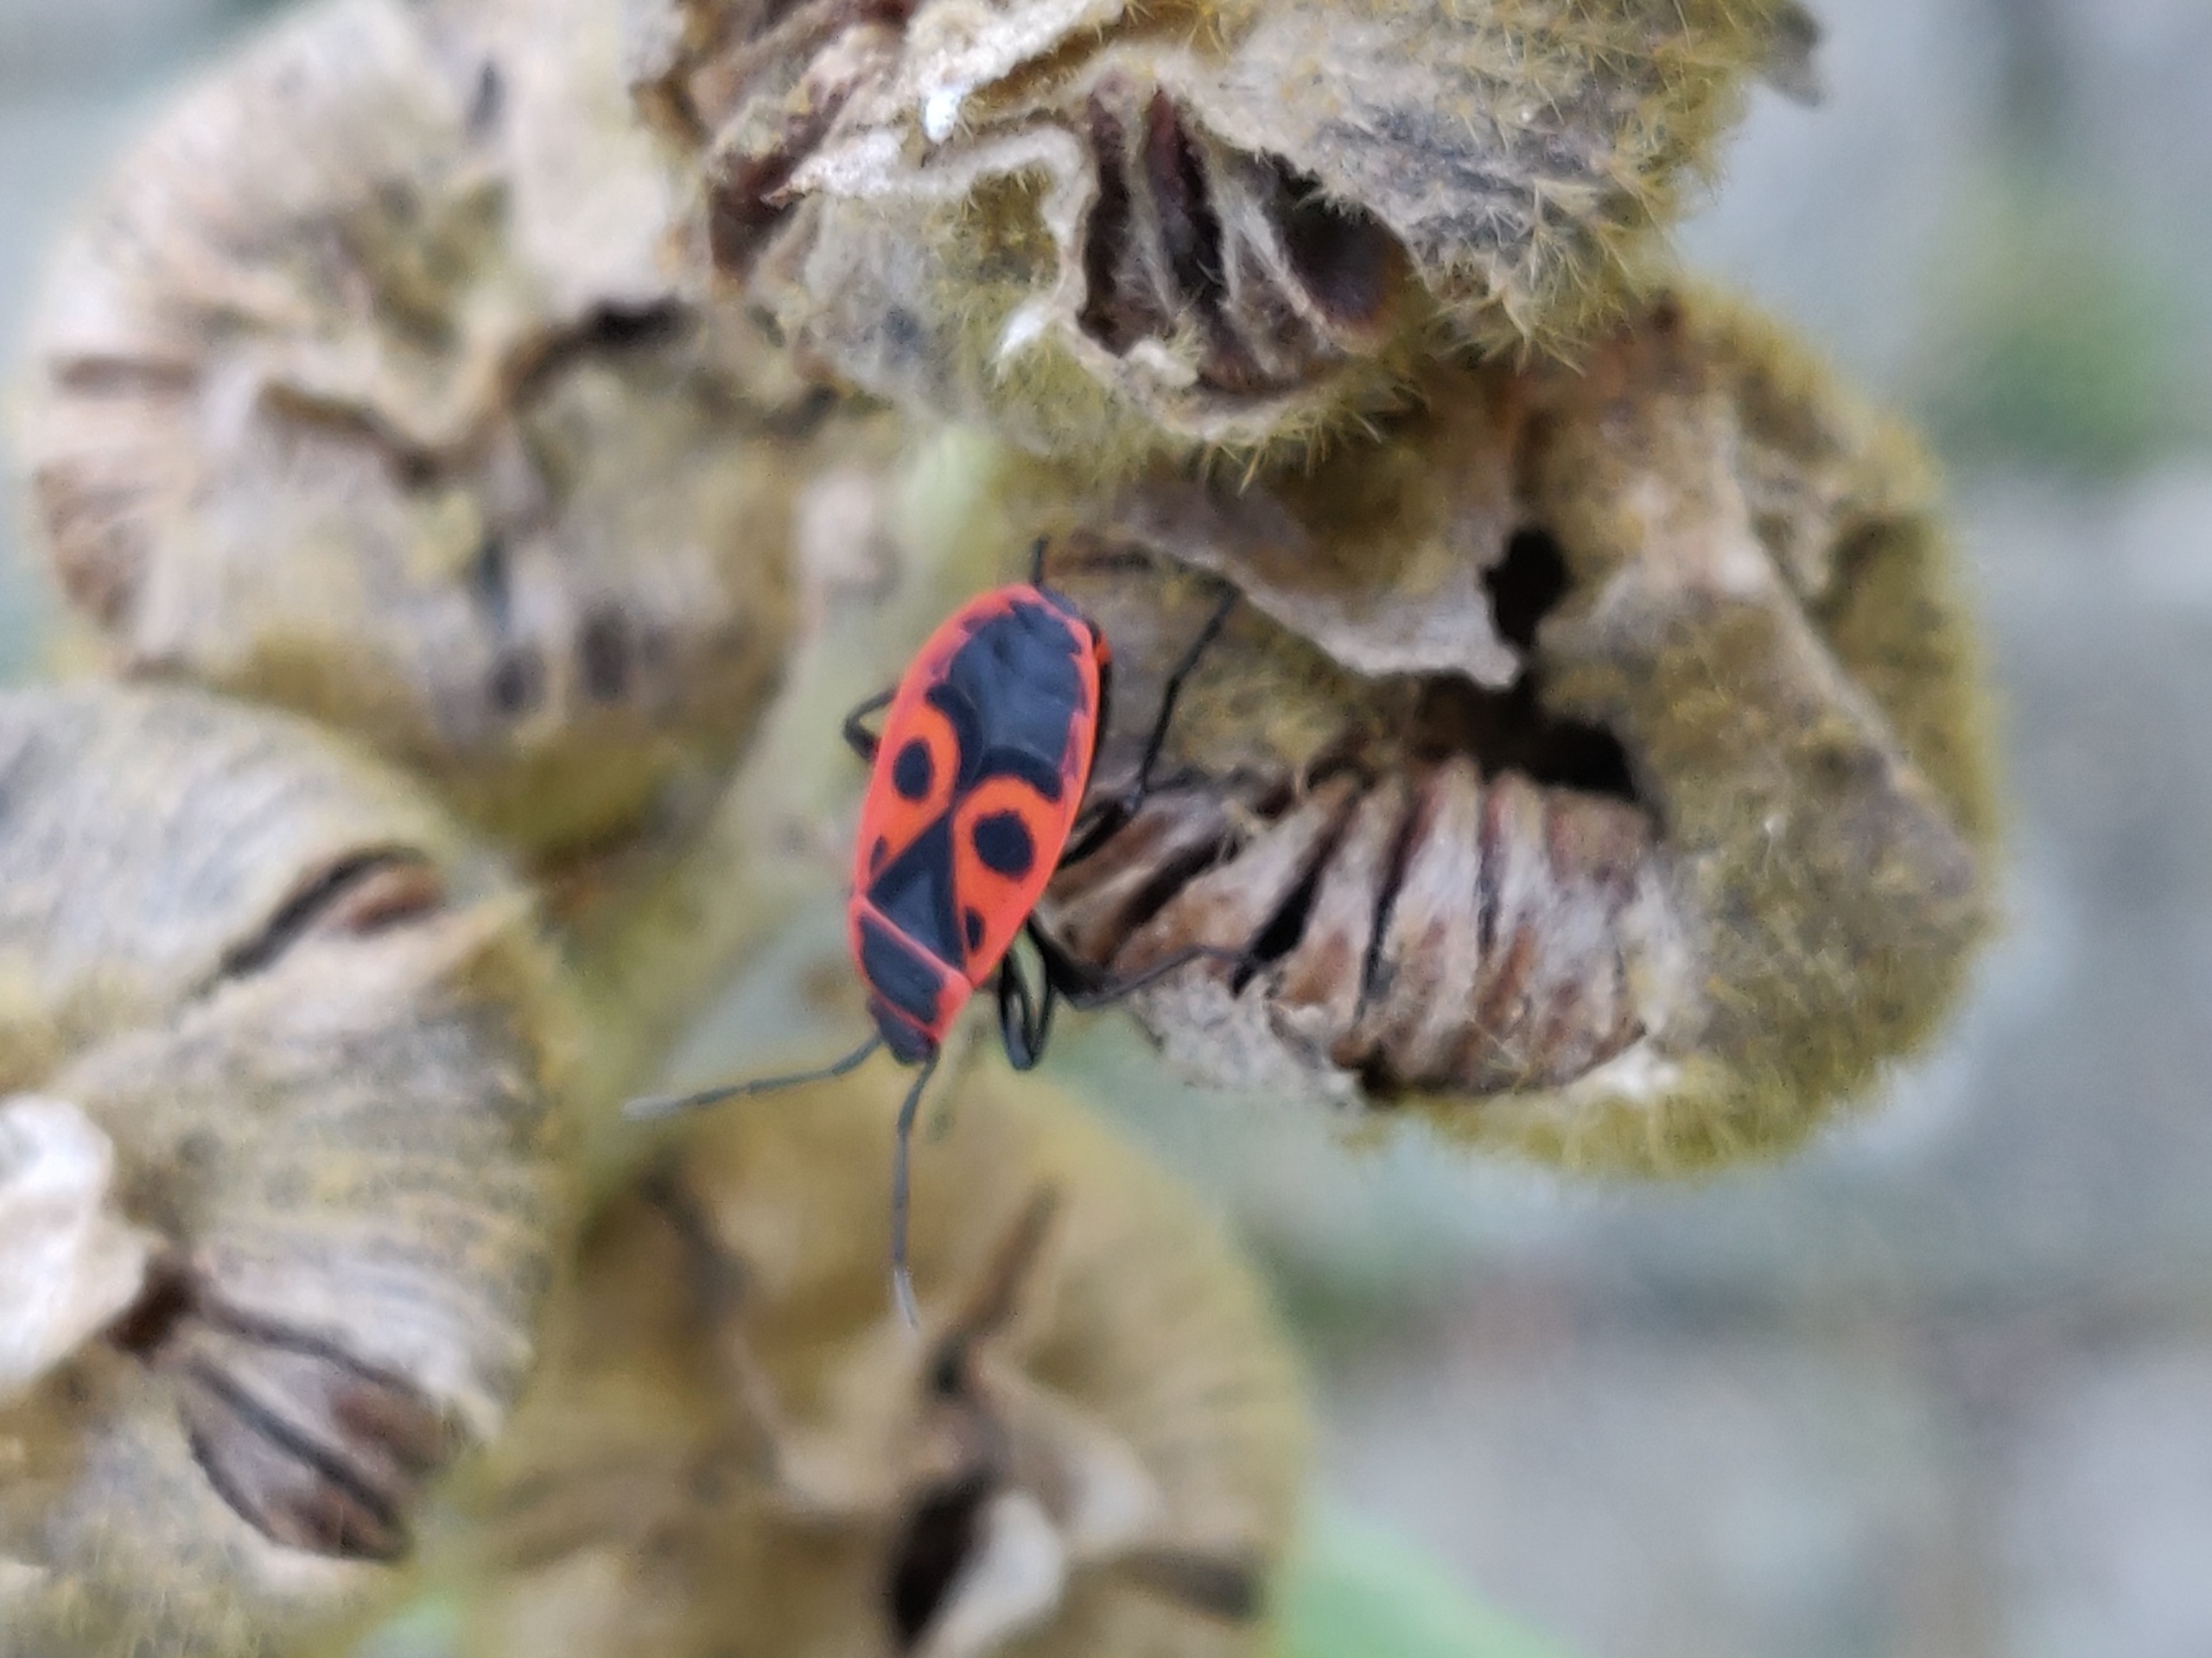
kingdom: Animalia
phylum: Arthropoda
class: Insecta
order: Hemiptera
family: Pyrrhocoridae
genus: Pyrrhocoris
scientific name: Pyrrhocoris apterus
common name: Ildtæge
